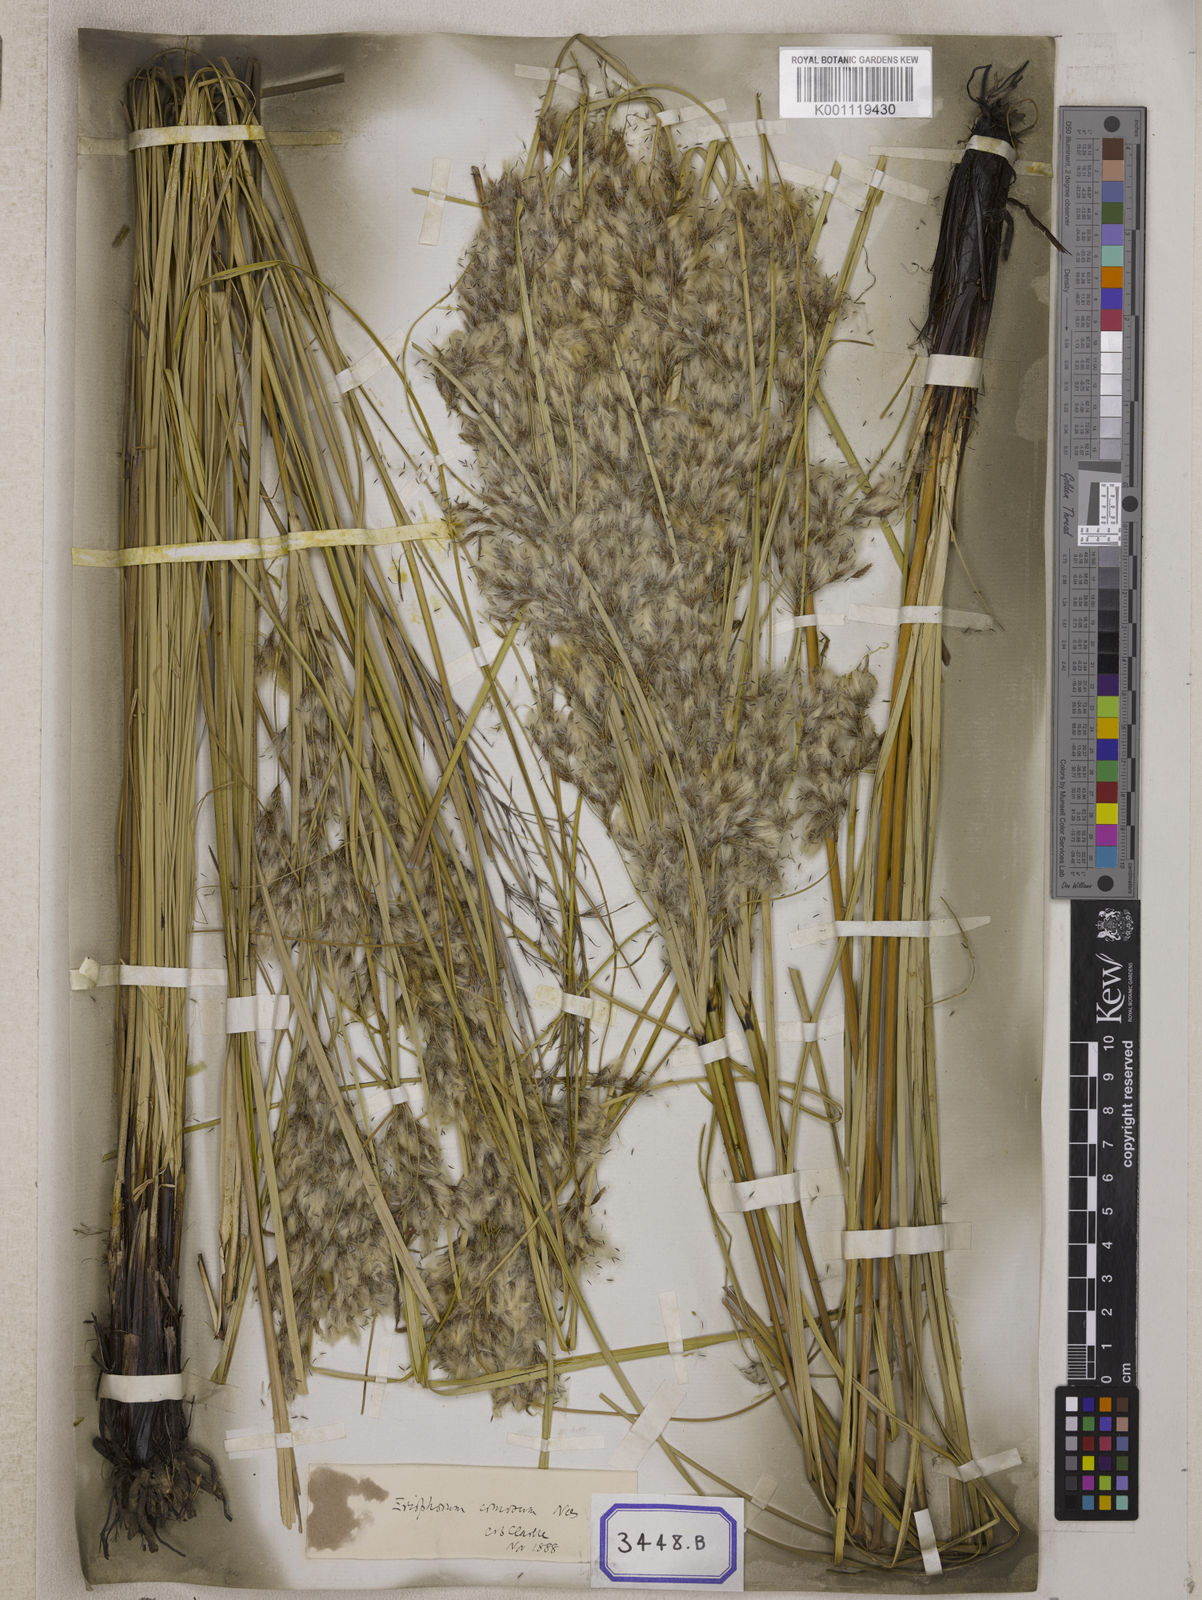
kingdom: Plantae
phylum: Tracheophyta
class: Liliopsida
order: Poales
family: Cyperaceae
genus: Erioscirpus
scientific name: Erioscirpus comosus
